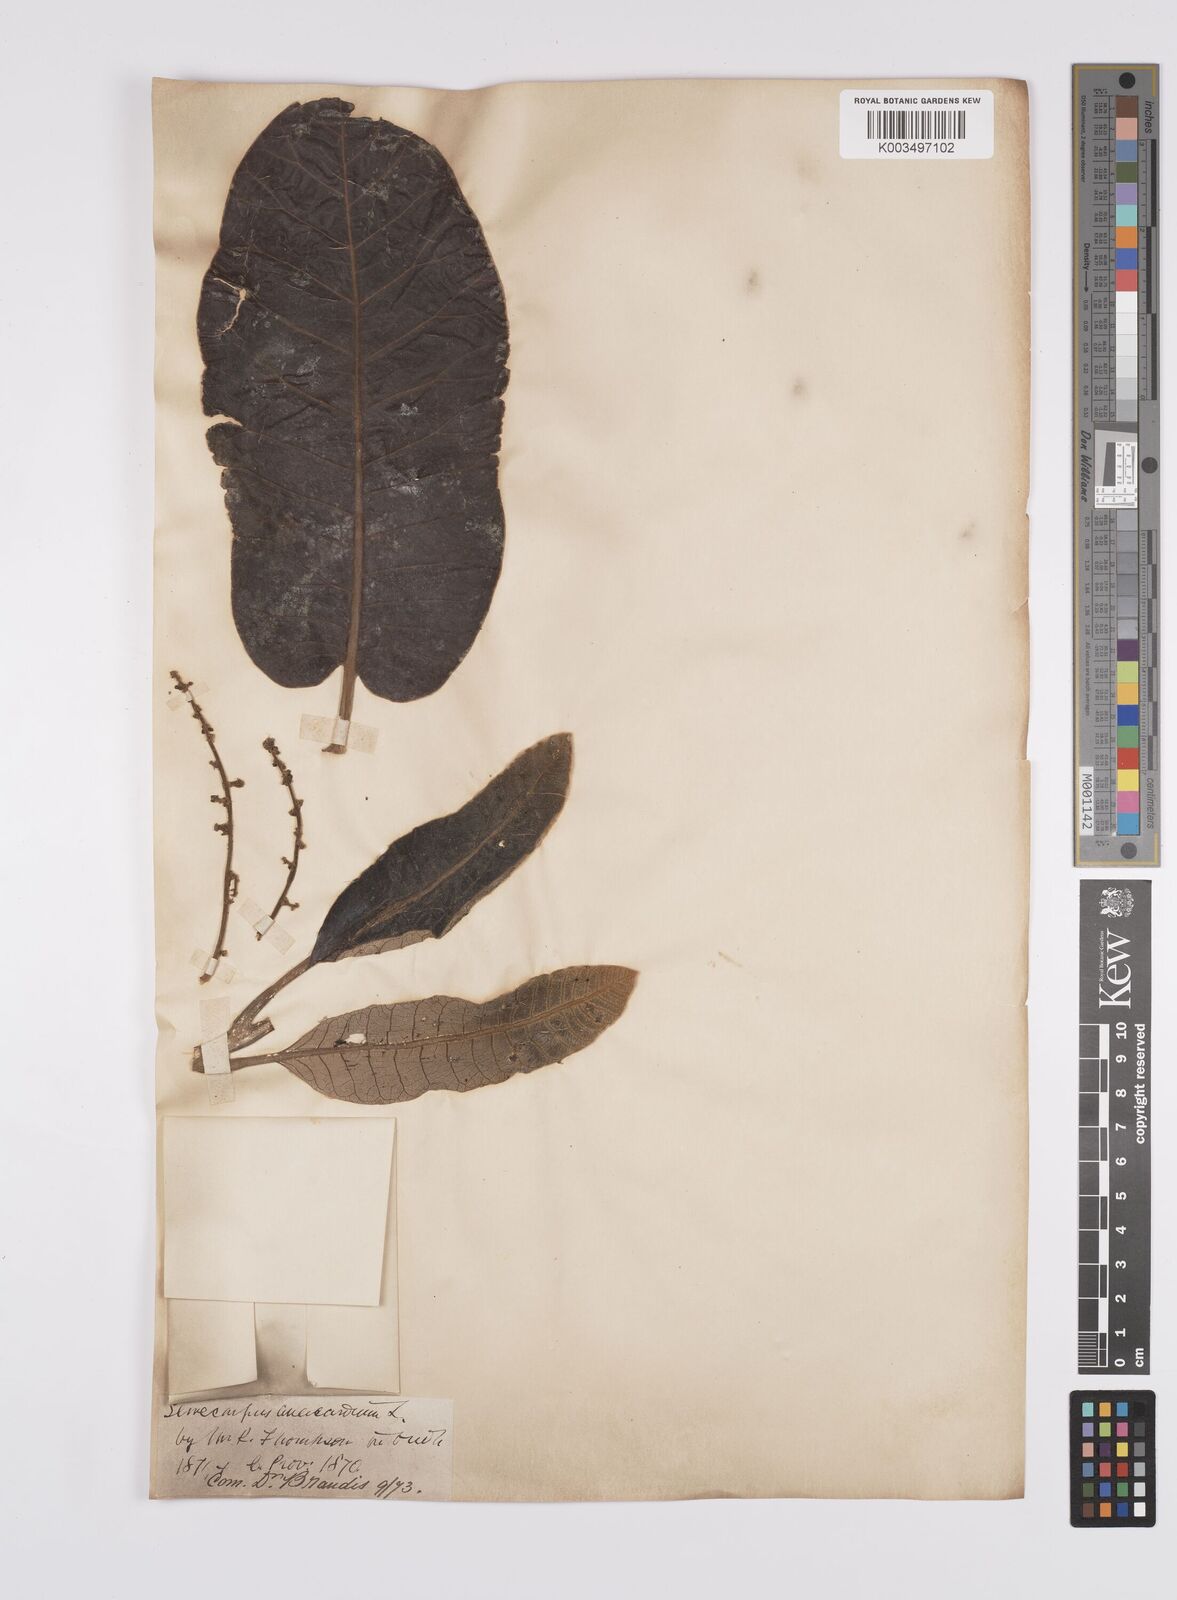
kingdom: Plantae
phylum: Tracheophyta
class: Magnoliopsida
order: Sapindales
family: Anacardiaceae
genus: Semecarpus
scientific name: Semecarpus anacardium
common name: Marking nut-tree
